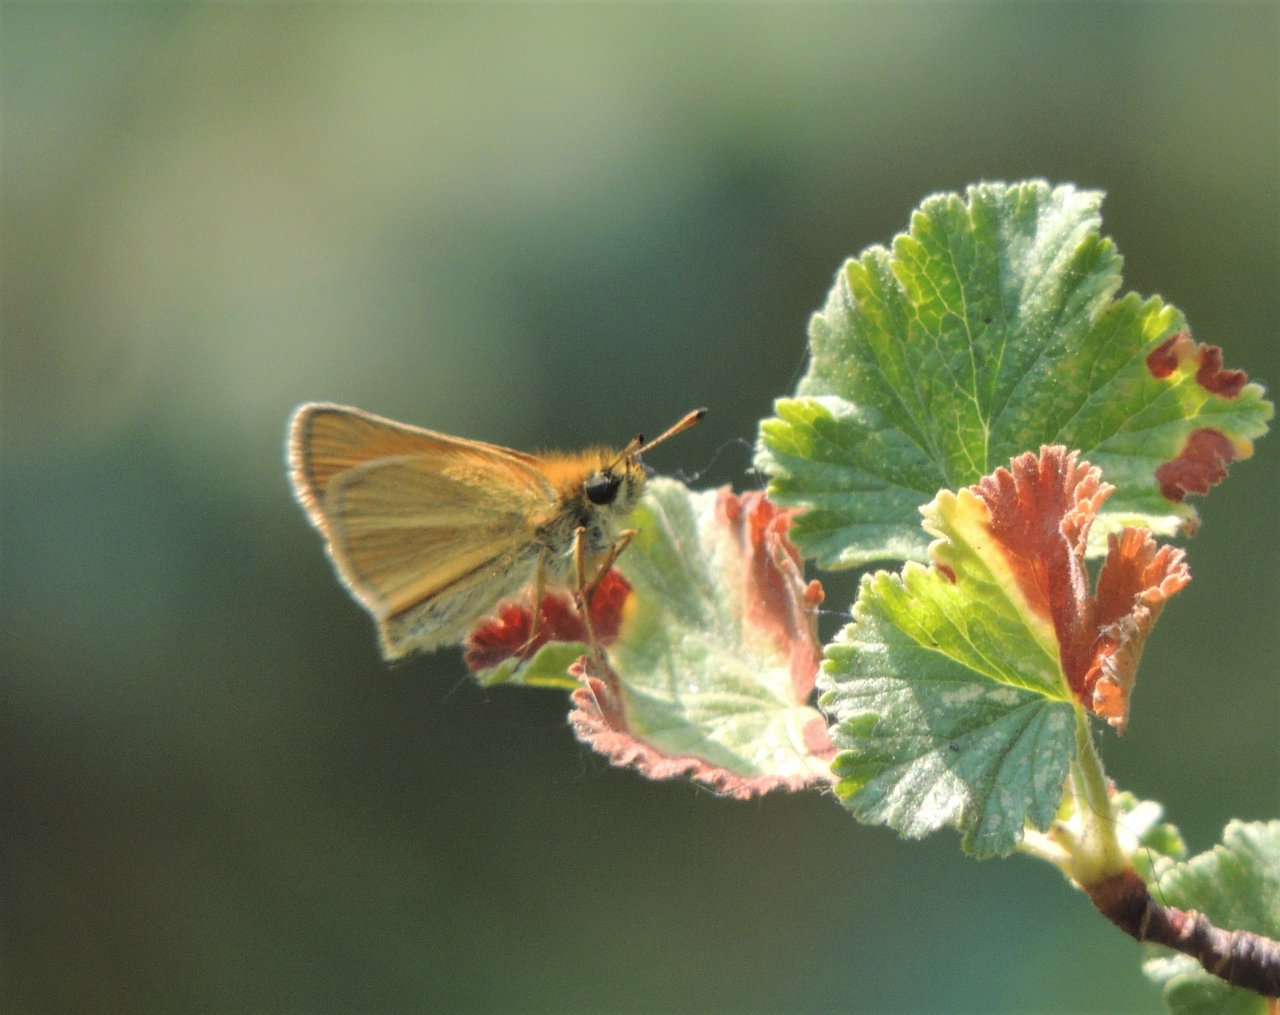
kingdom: Animalia
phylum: Arthropoda
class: Insecta
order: Lepidoptera
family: Hesperiidae
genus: Thymelicus
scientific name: Thymelicus lineola
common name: European Skipper
